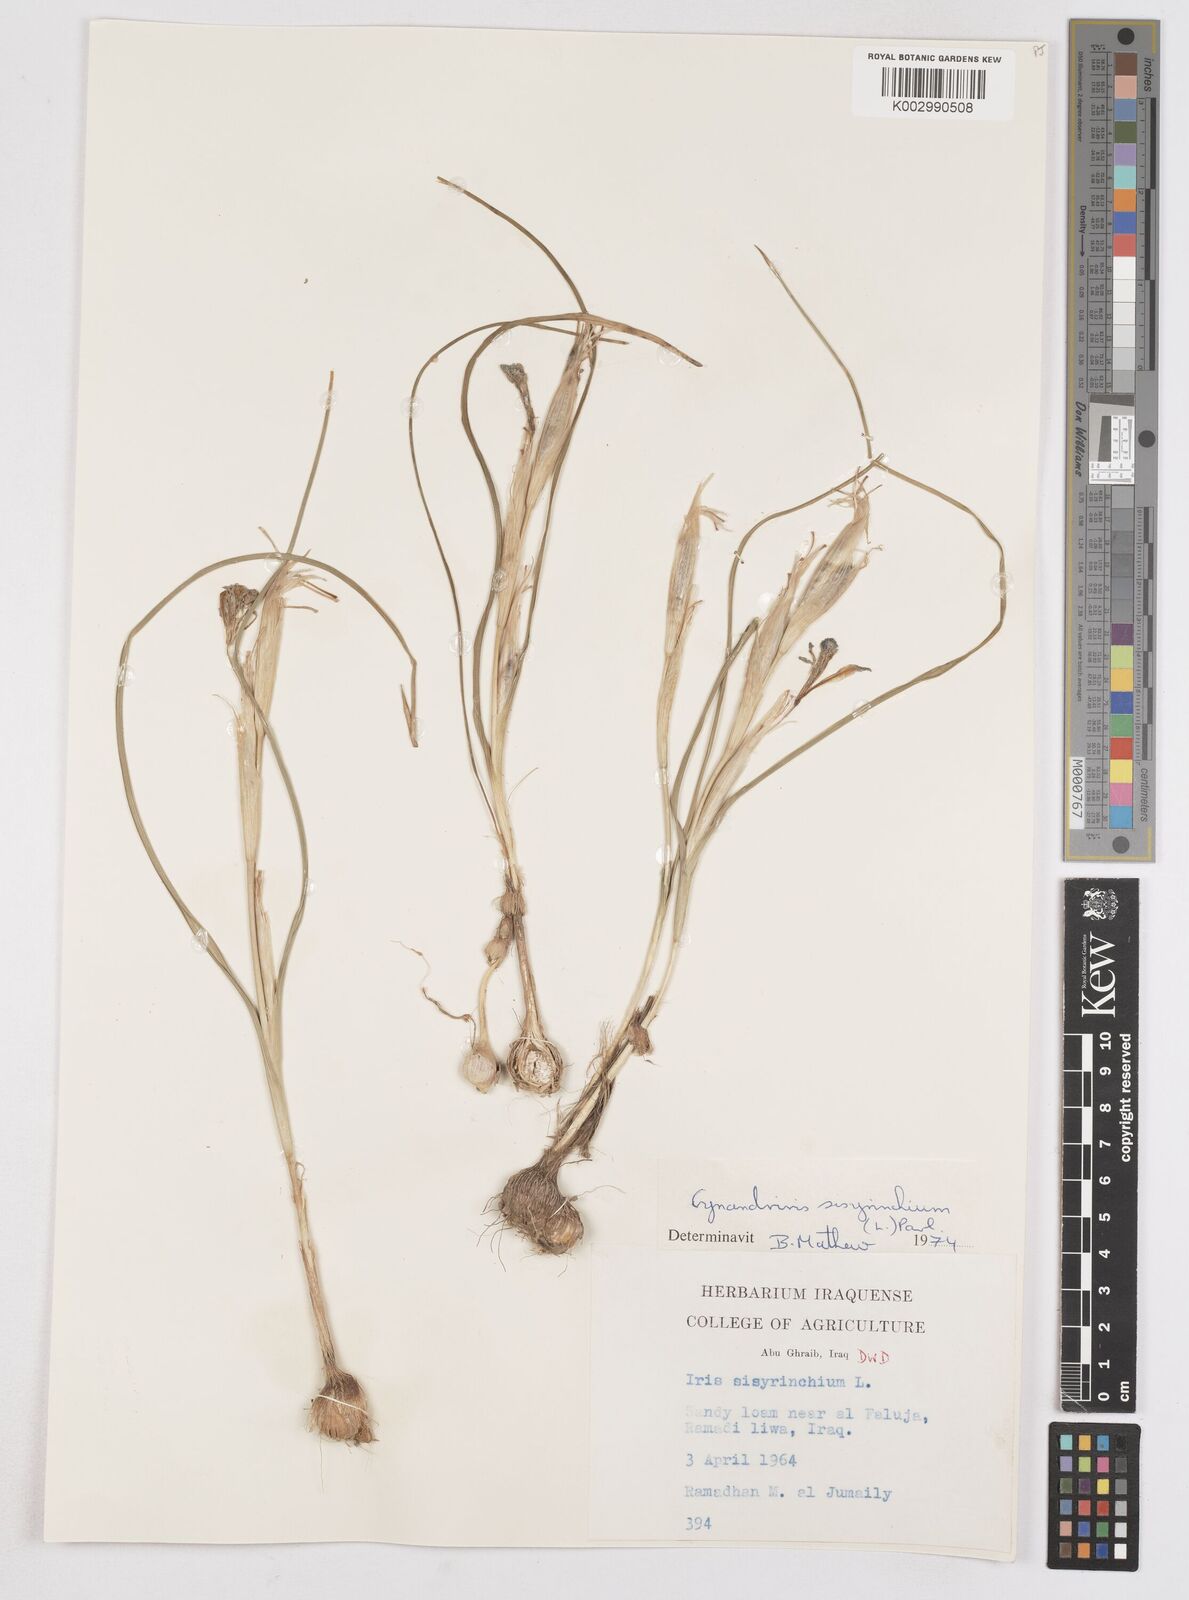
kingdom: Plantae
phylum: Tracheophyta
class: Liliopsida
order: Asparagales
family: Iridaceae
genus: Moraea
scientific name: Moraea sisyrinchium
